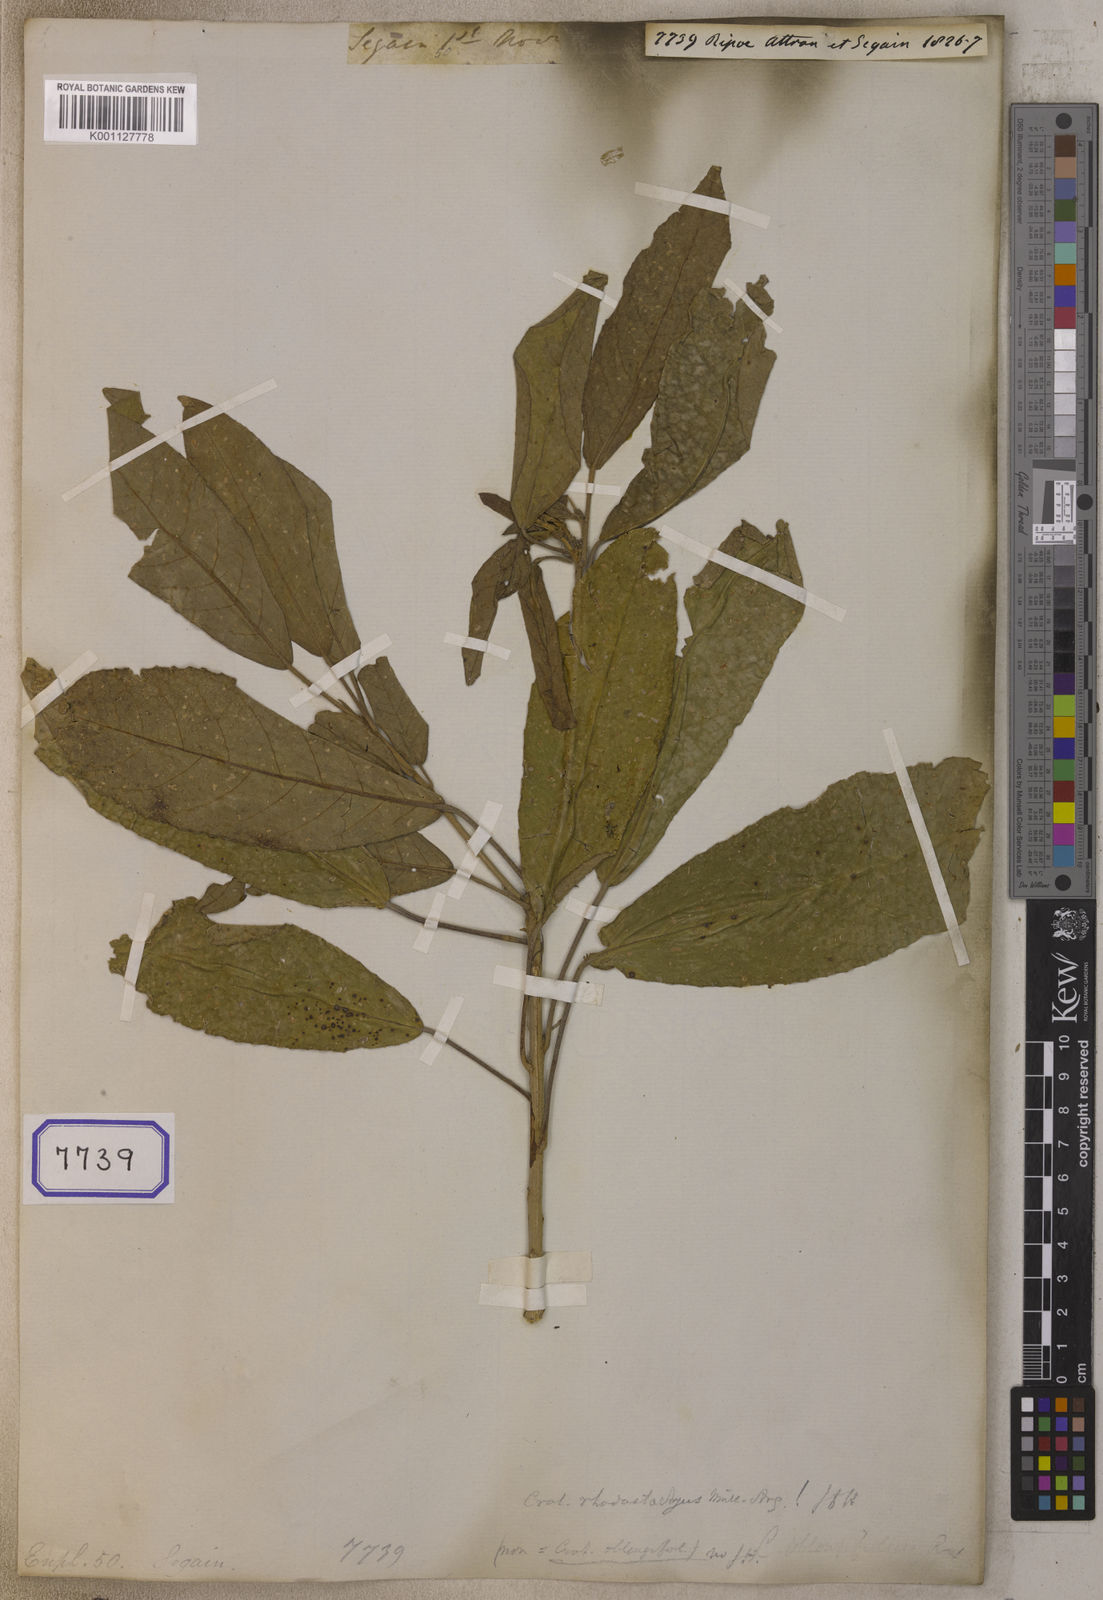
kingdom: Plantae
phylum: Tracheophyta
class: Magnoliopsida
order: Malpighiales
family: Euphorbiaceae
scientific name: Euphorbiaceae
